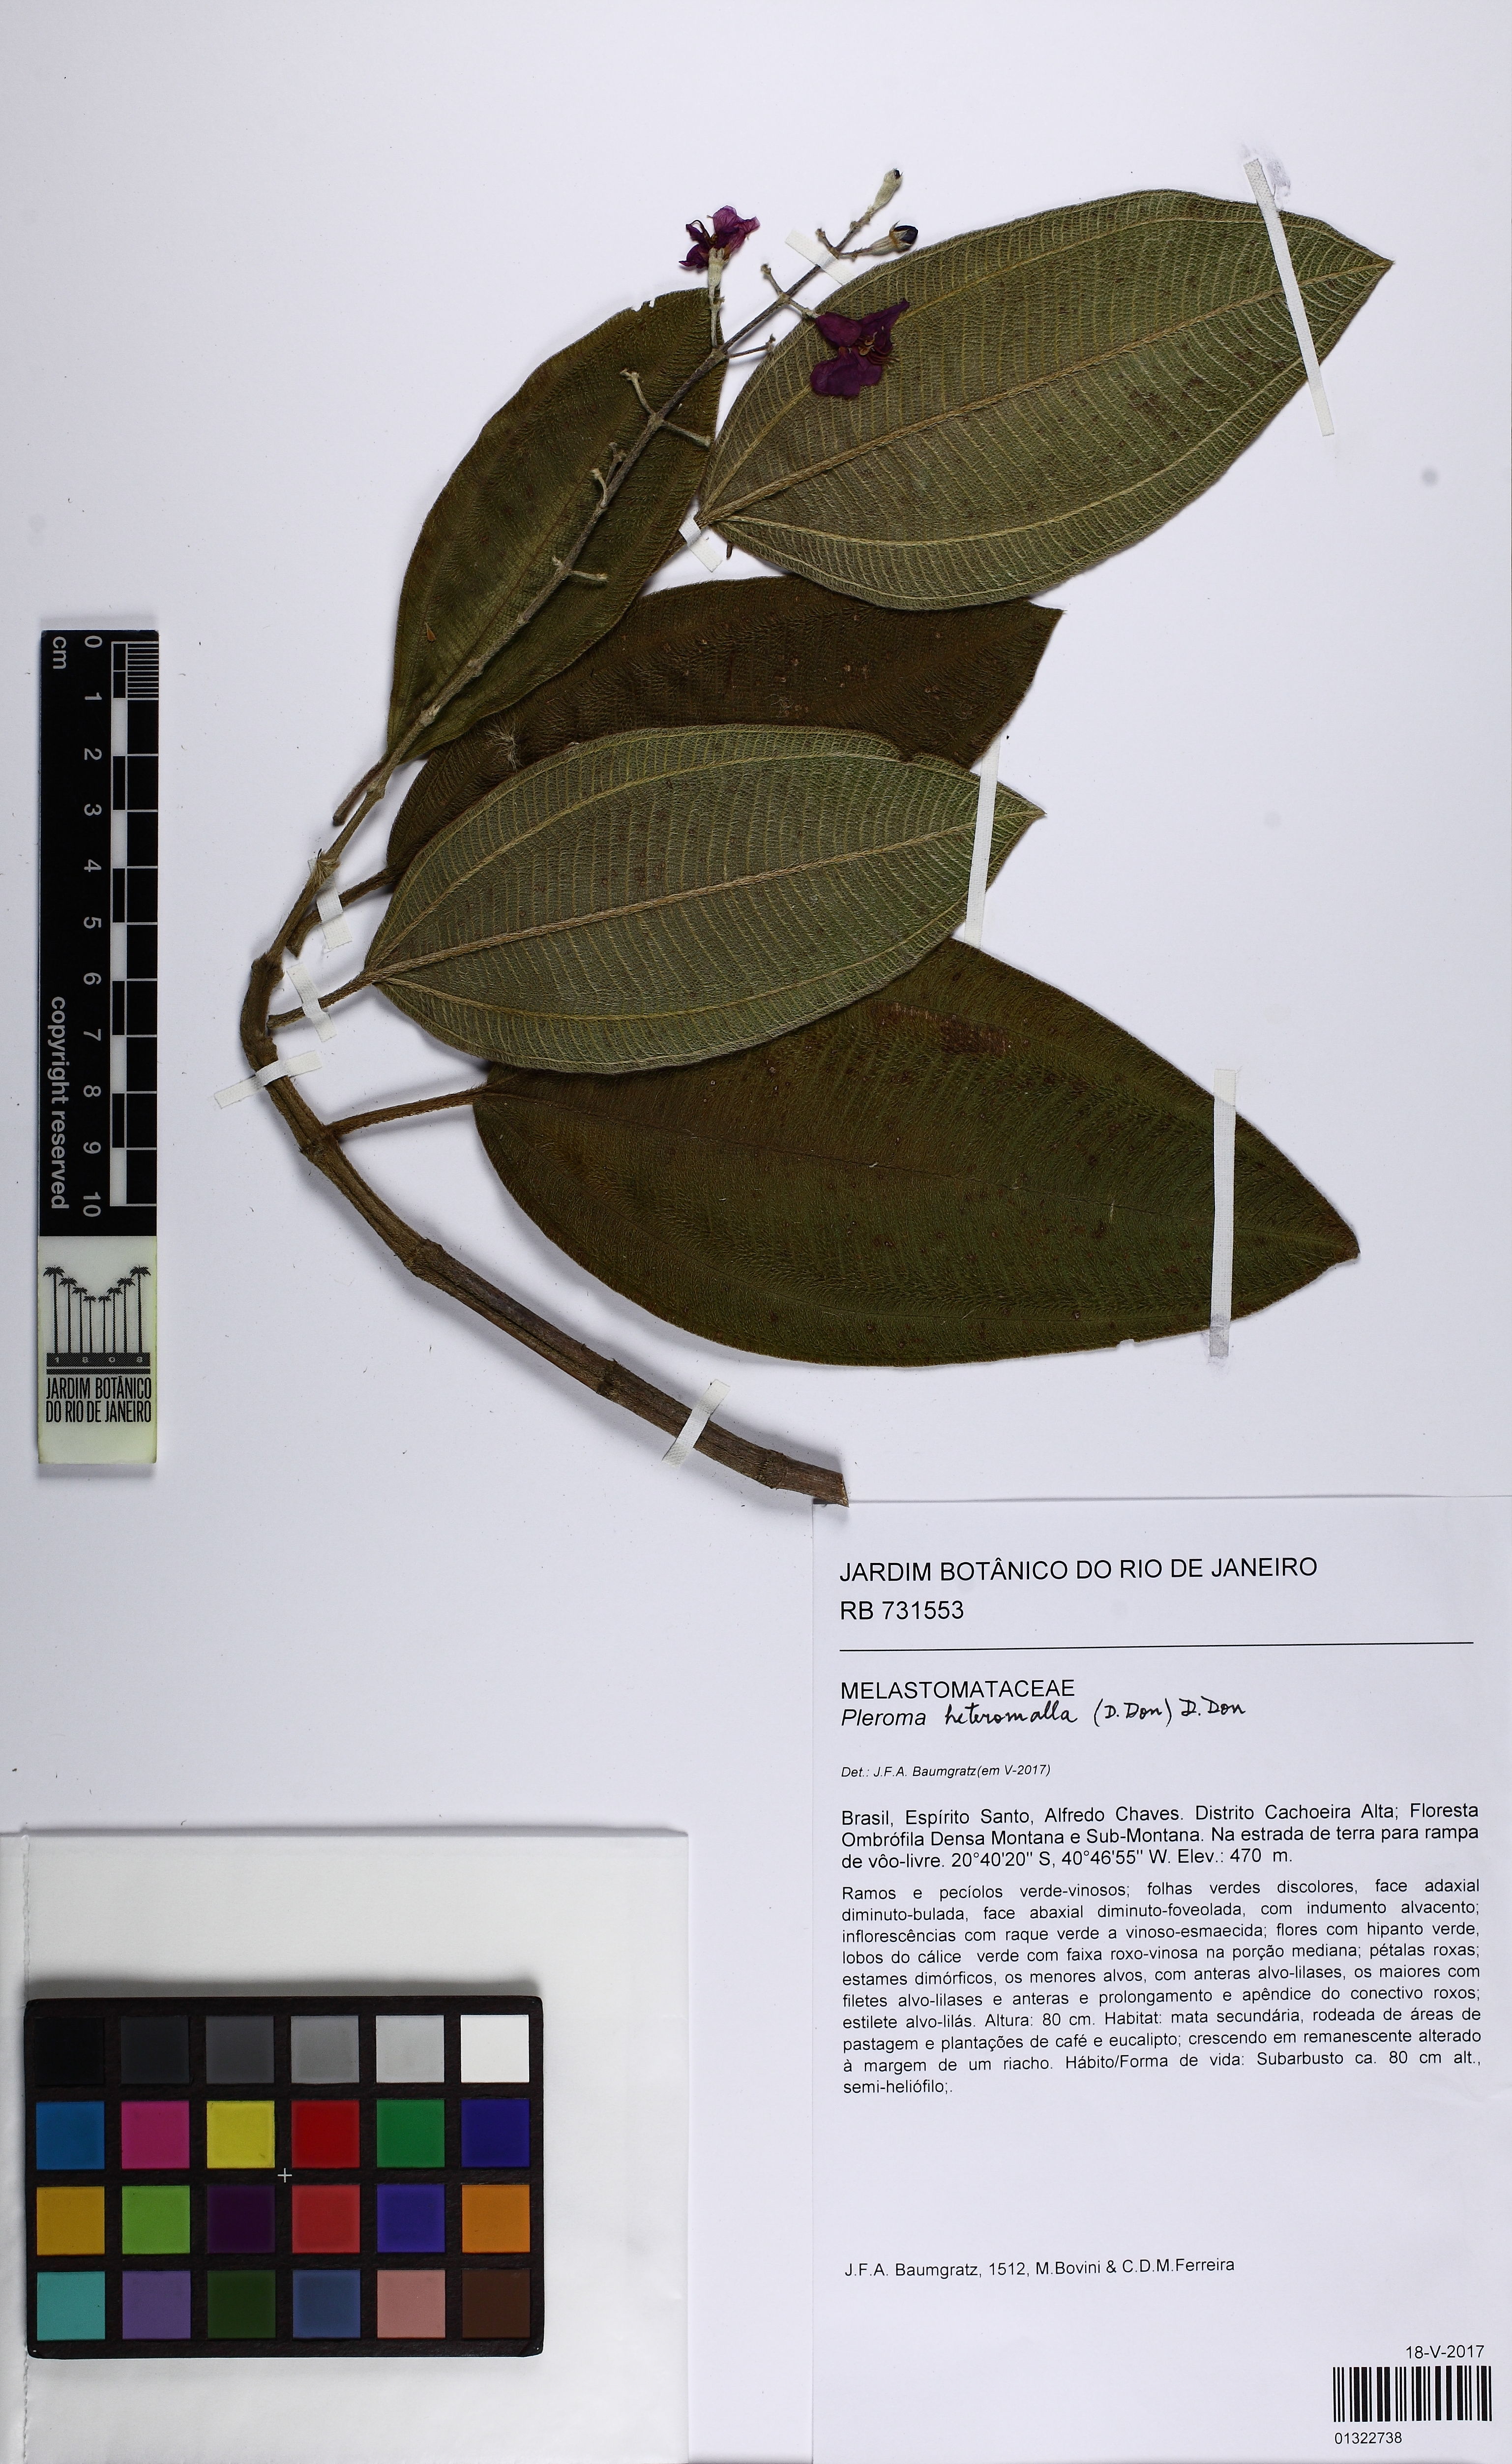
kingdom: Plantae
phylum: Tracheophyta
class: Magnoliopsida
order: Myrtales
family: Melastomataceae
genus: Pleroma
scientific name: Pleroma heteromallum
